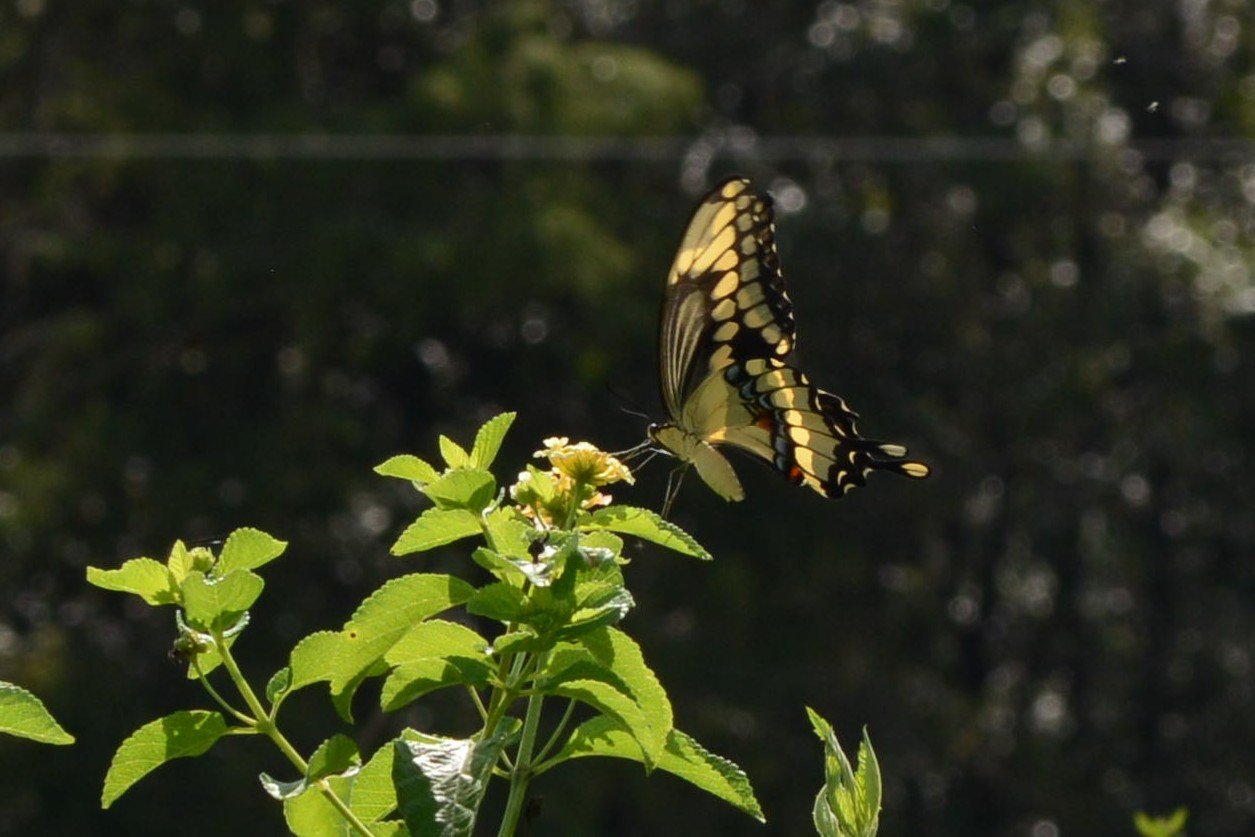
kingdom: Animalia
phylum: Arthropoda
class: Insecta
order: Lepidoptera
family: Papilionidae
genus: Papilio
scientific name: Papilio cresphontes
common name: Eastern Giant Swallowtail
